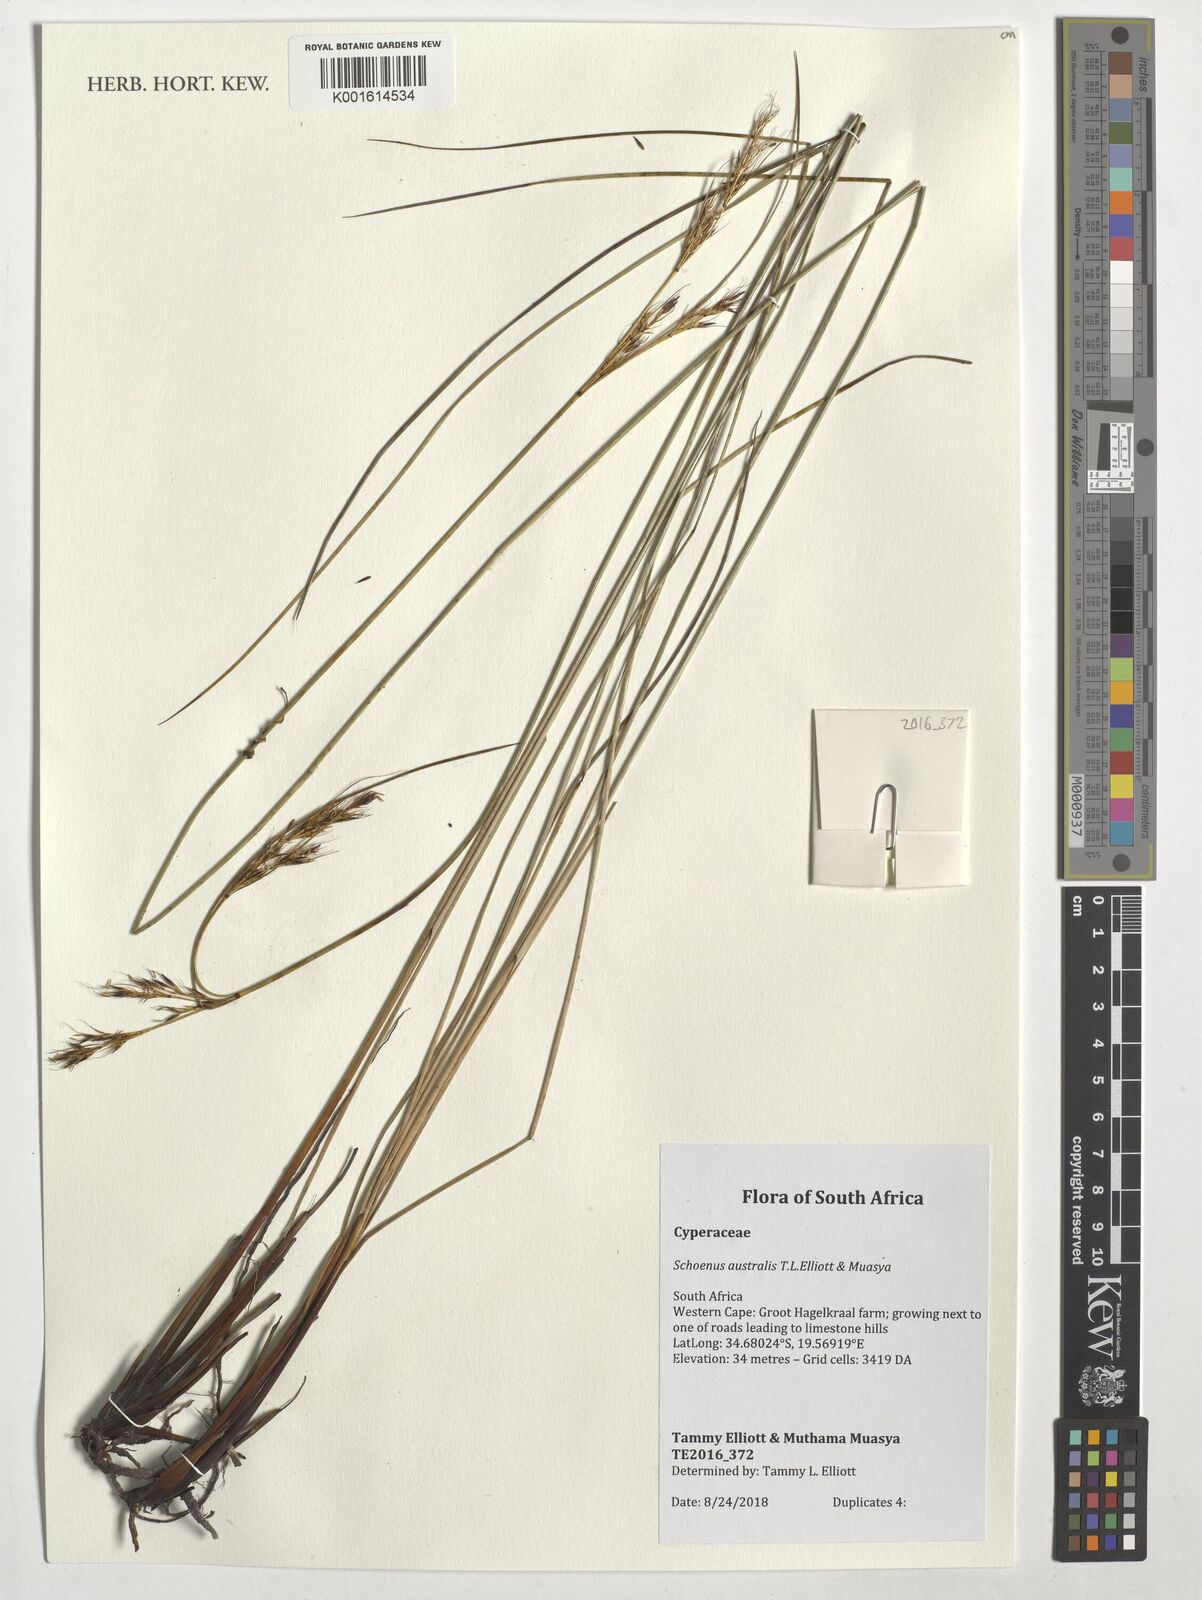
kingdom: Plantae
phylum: Tracheophyta
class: Liliopsida
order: Poales
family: Cyperaceae
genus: Schoenus
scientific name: Schoenus
